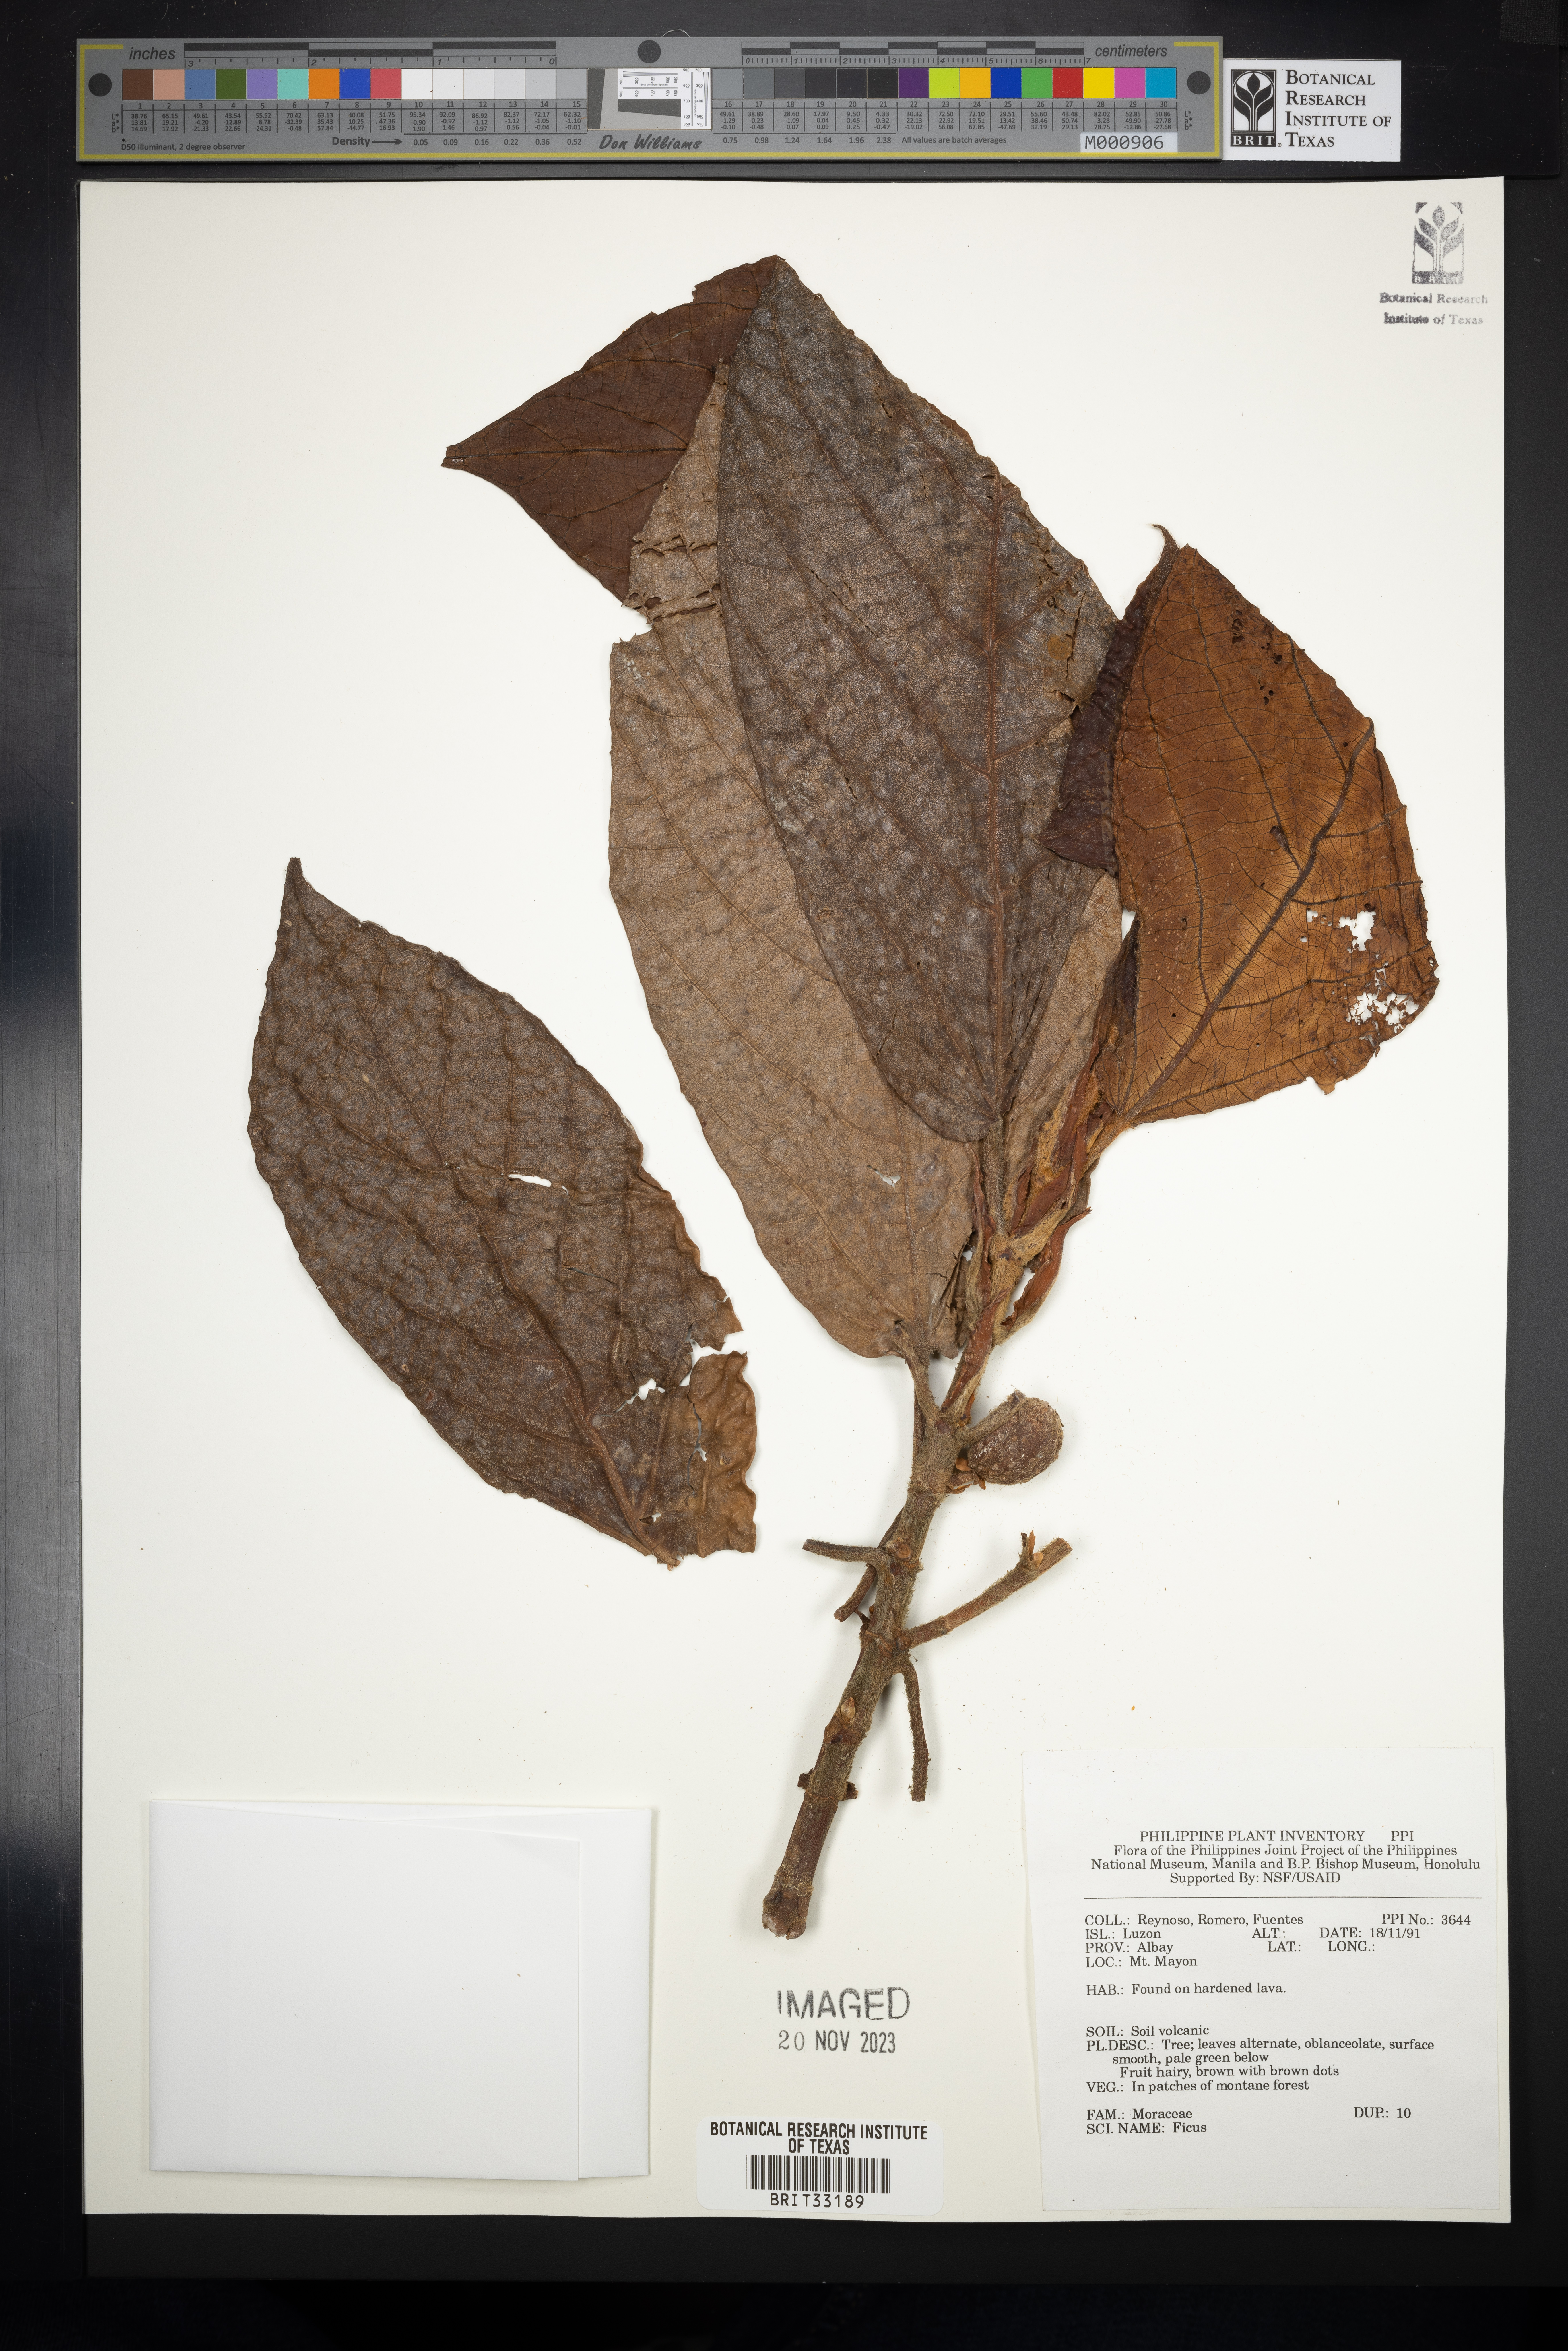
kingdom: Plantae
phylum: Tracheophyta
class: Magnoliopsida
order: Rosales
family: Moraceae
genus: Ficus
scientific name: Ficus
